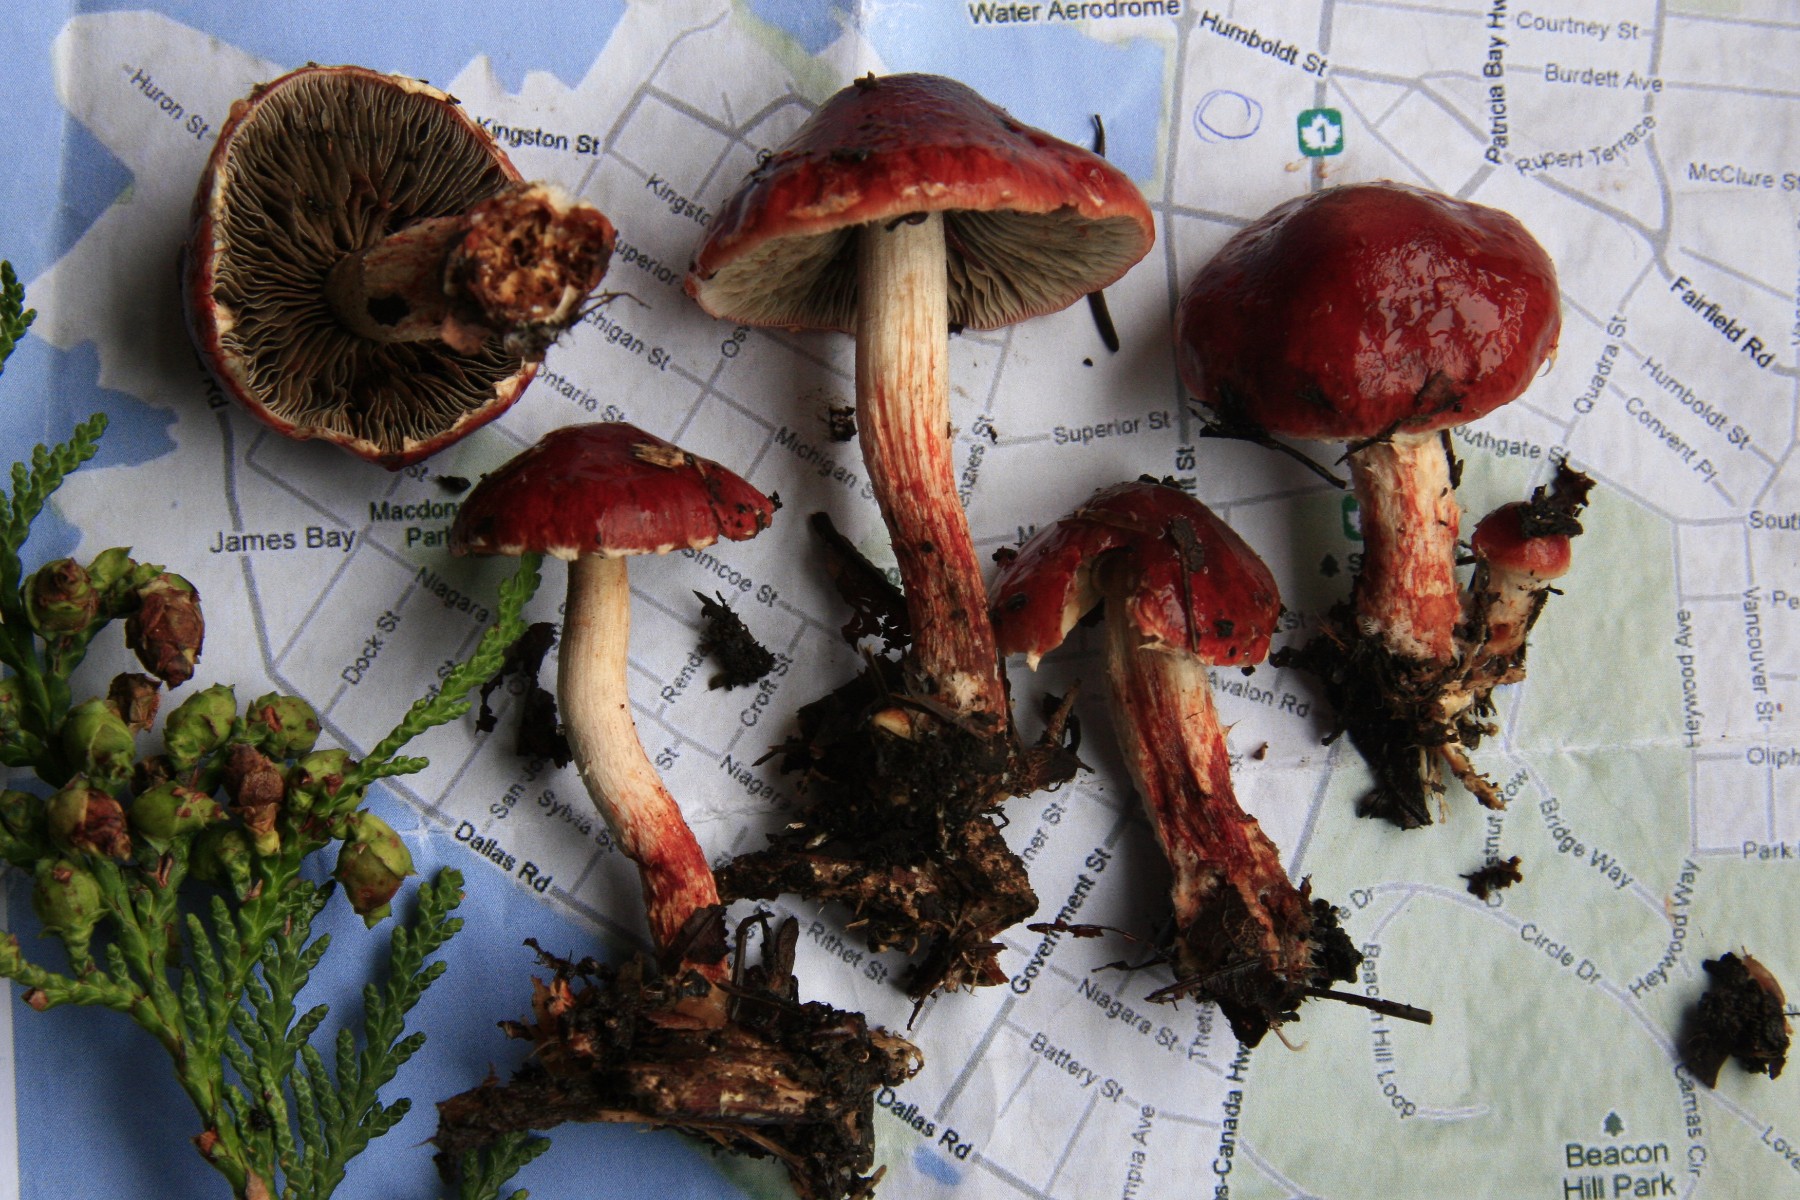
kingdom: Fungi
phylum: Basidiomycota
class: Agaricomycetes
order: Agaricales
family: Strophariaceae
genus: Leratiomyces
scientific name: Leratiomyces ceres
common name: orange bredblad
